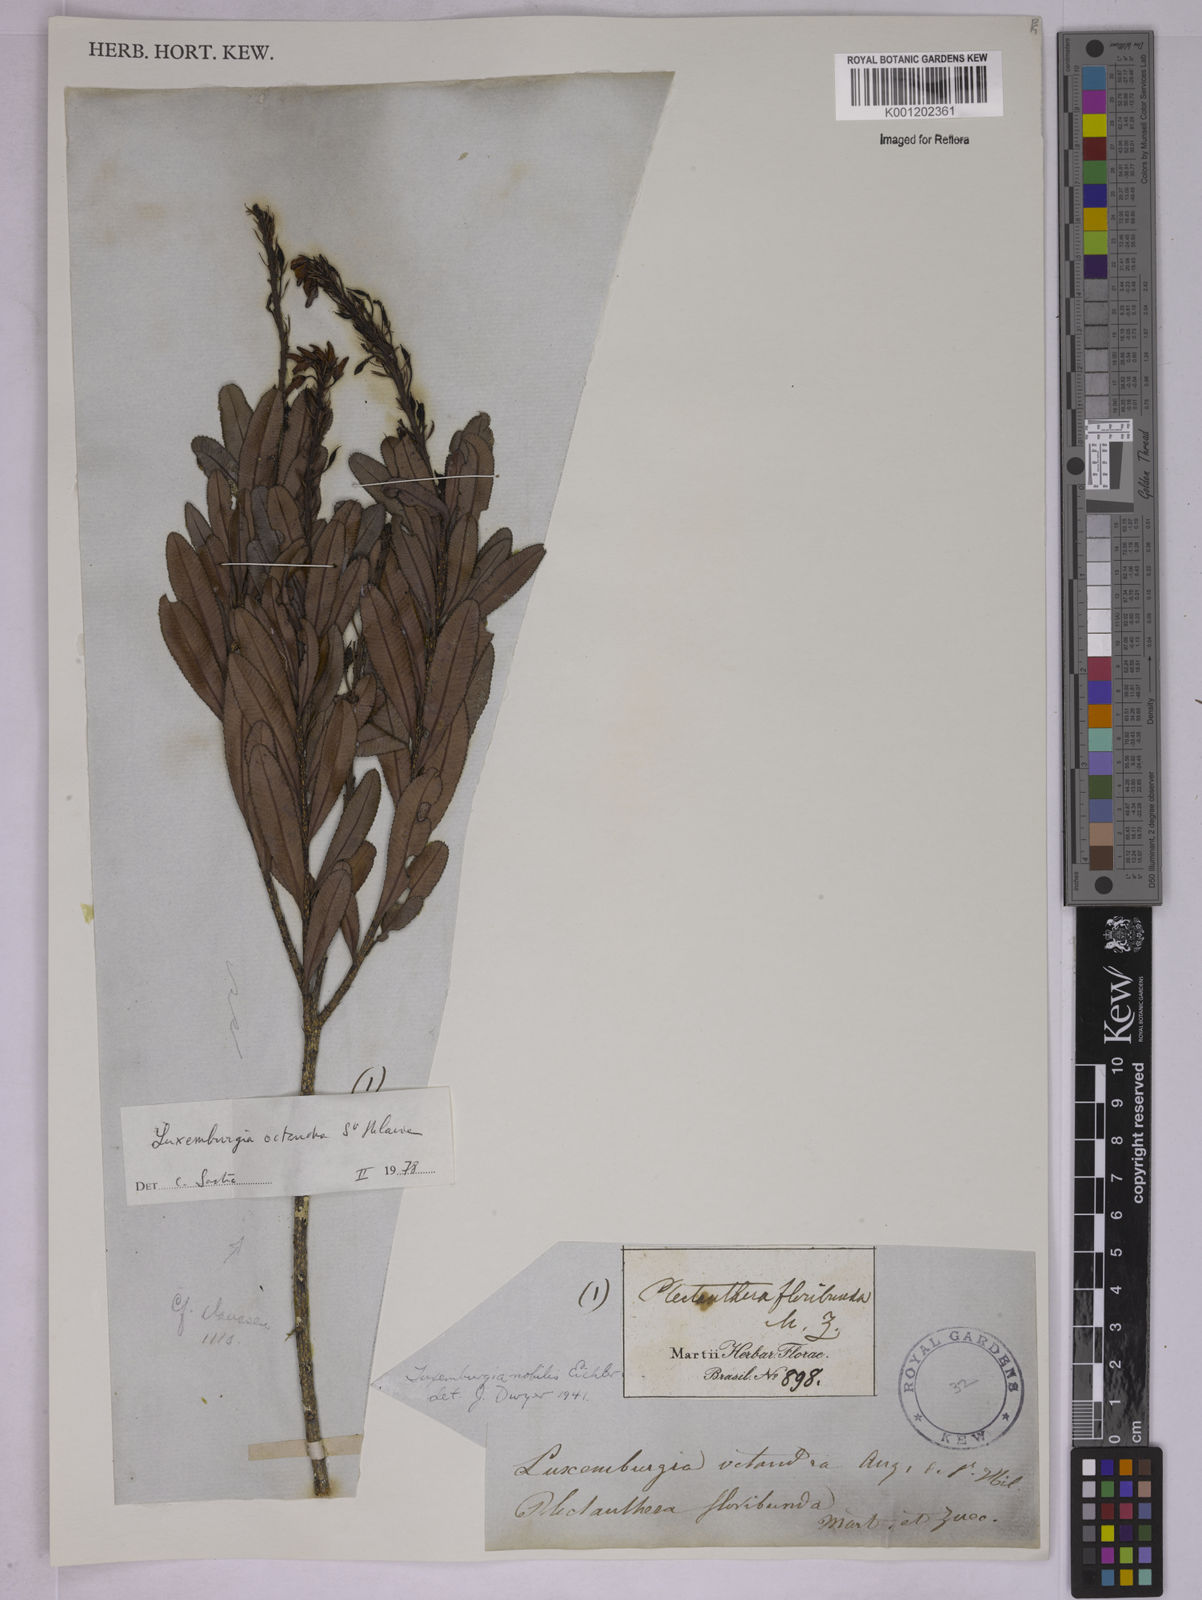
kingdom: Plantae
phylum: Tracheophyta
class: Magnoliopsida
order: Malpighiales
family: Ochnaceae
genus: Luxemburgia
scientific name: Luxemburgia octandra
